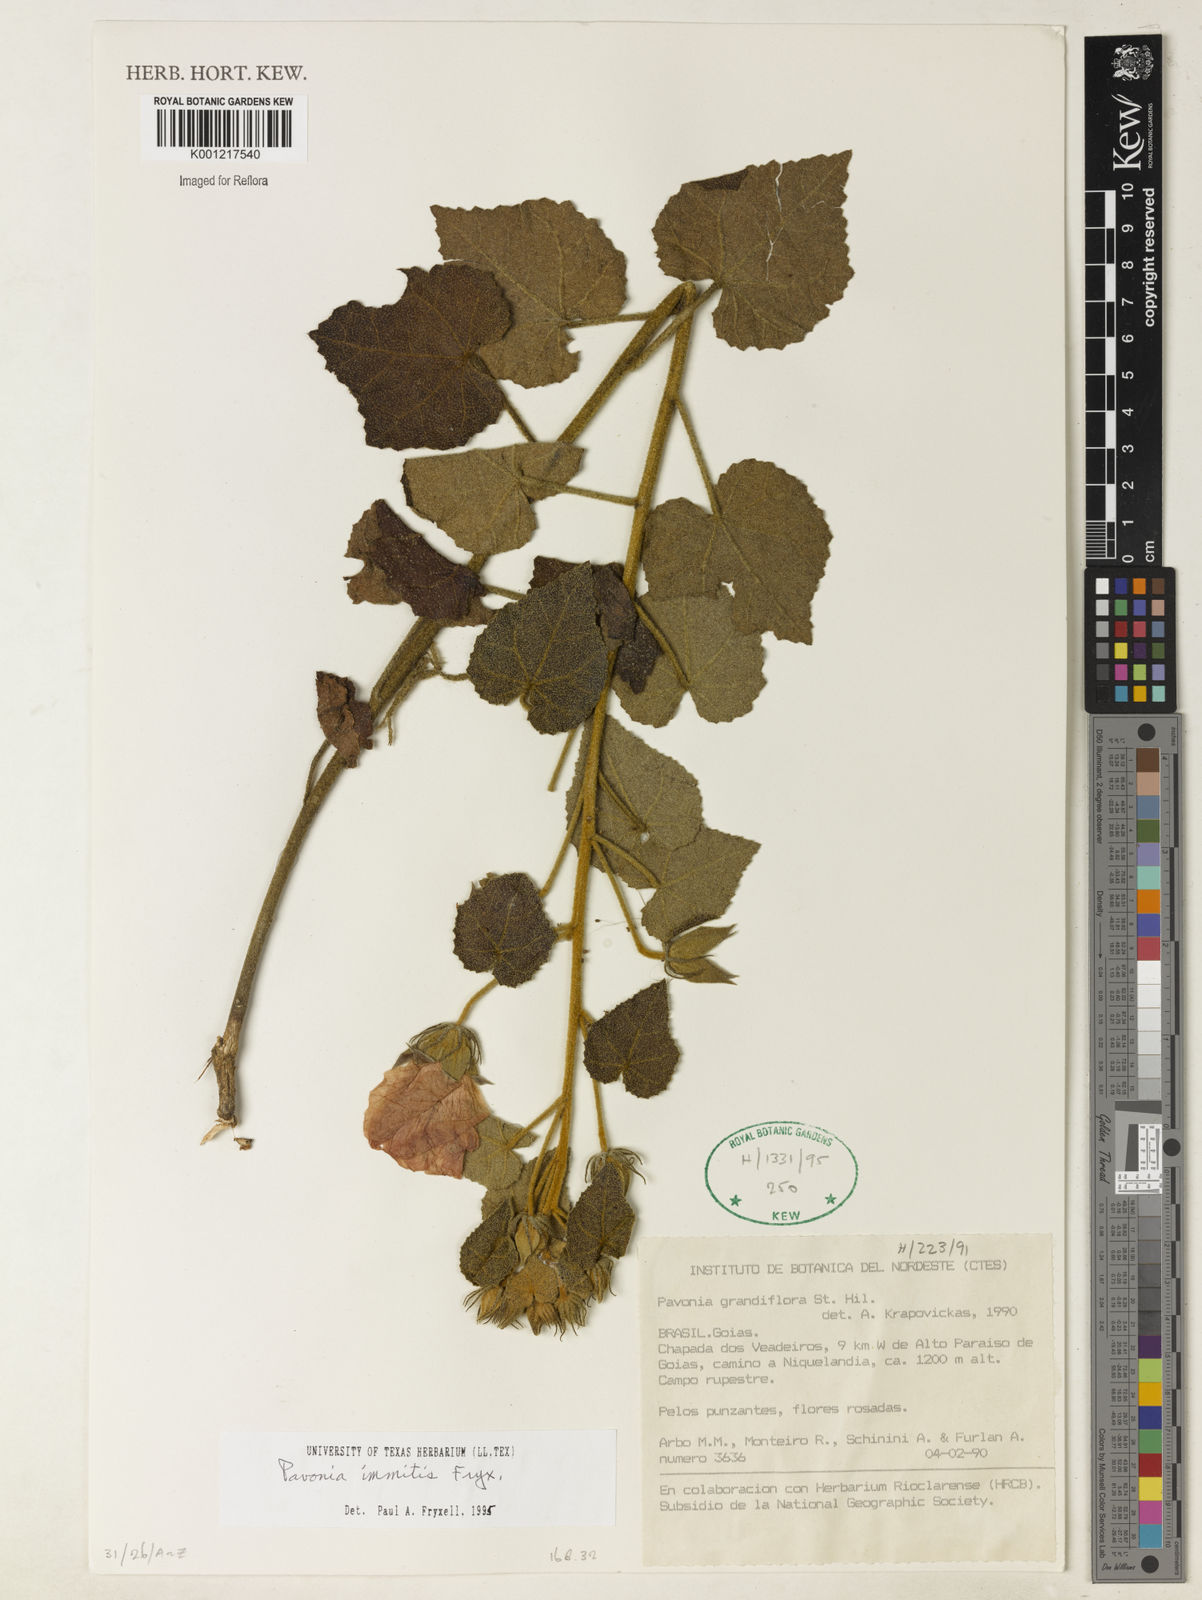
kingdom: Plantae
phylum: Tracheophyta
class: Magnoliopsida
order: Malvales
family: Malvaceae
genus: Pavonia
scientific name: Pavonia immitis
